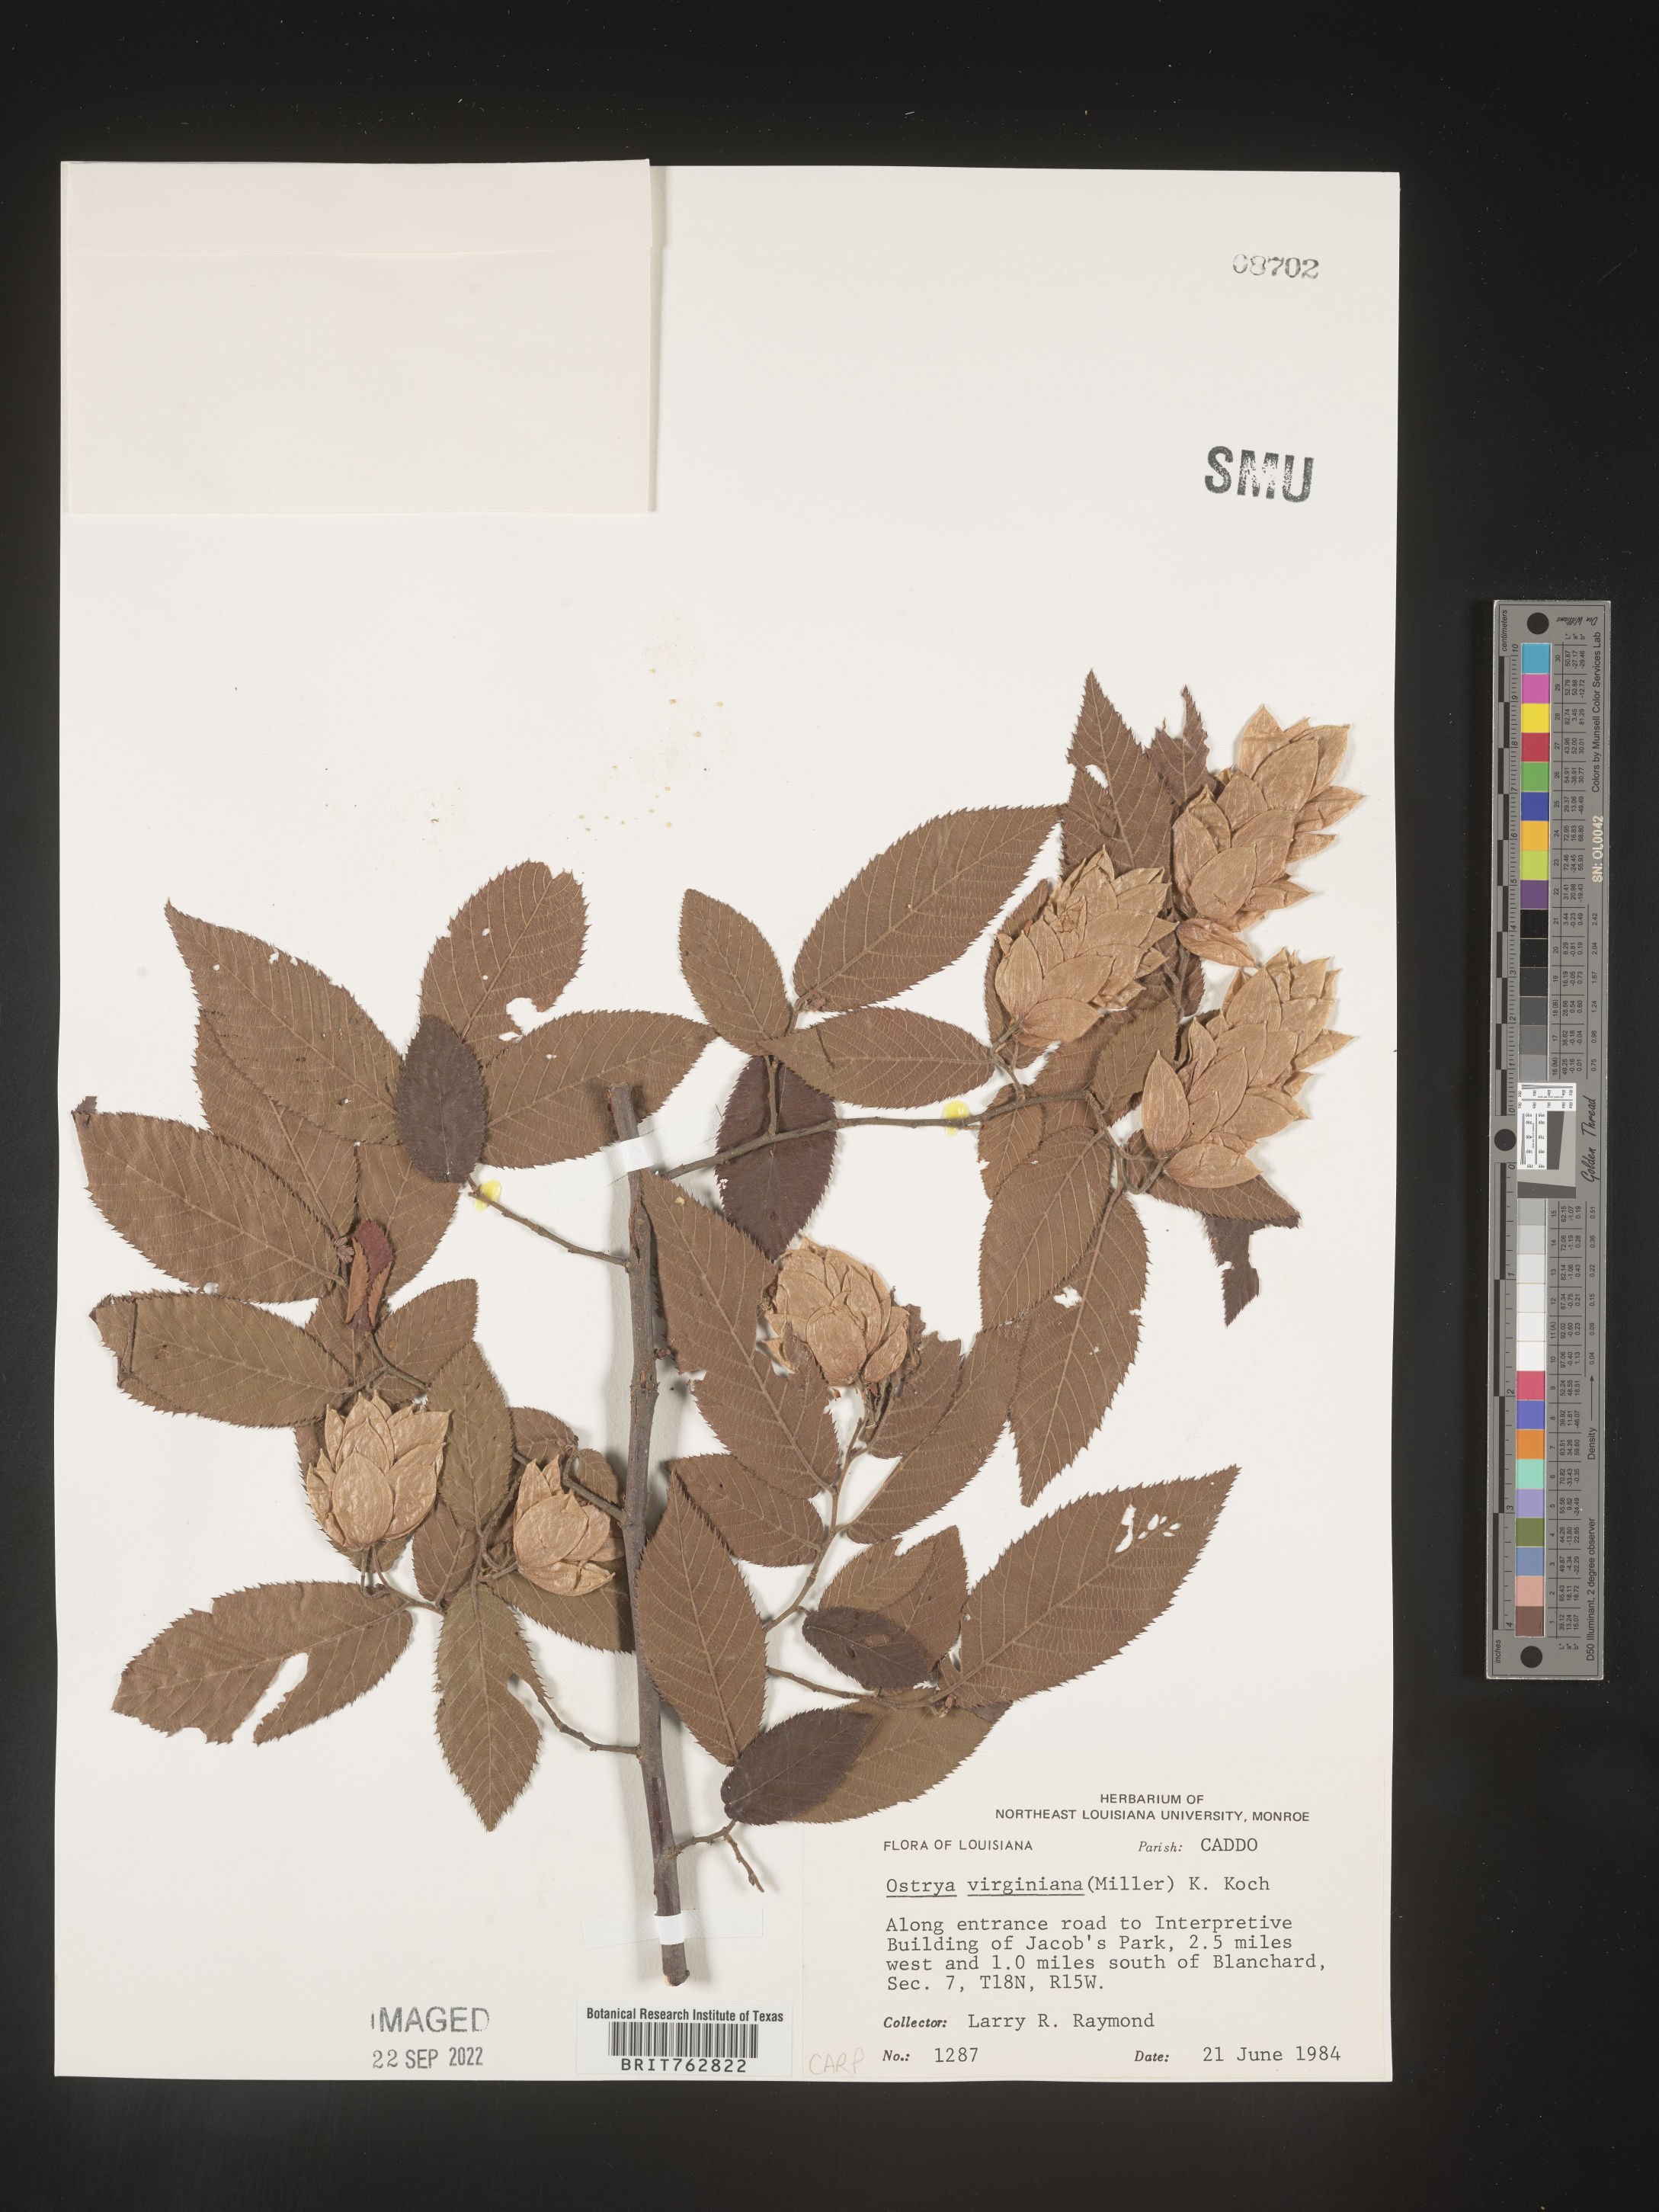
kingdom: Plantae
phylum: Tracheophyta
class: Magnoliopsida
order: Fagales
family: Betulaceae
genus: Ostrya
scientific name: Ostrya virginiana
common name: Ironwood
